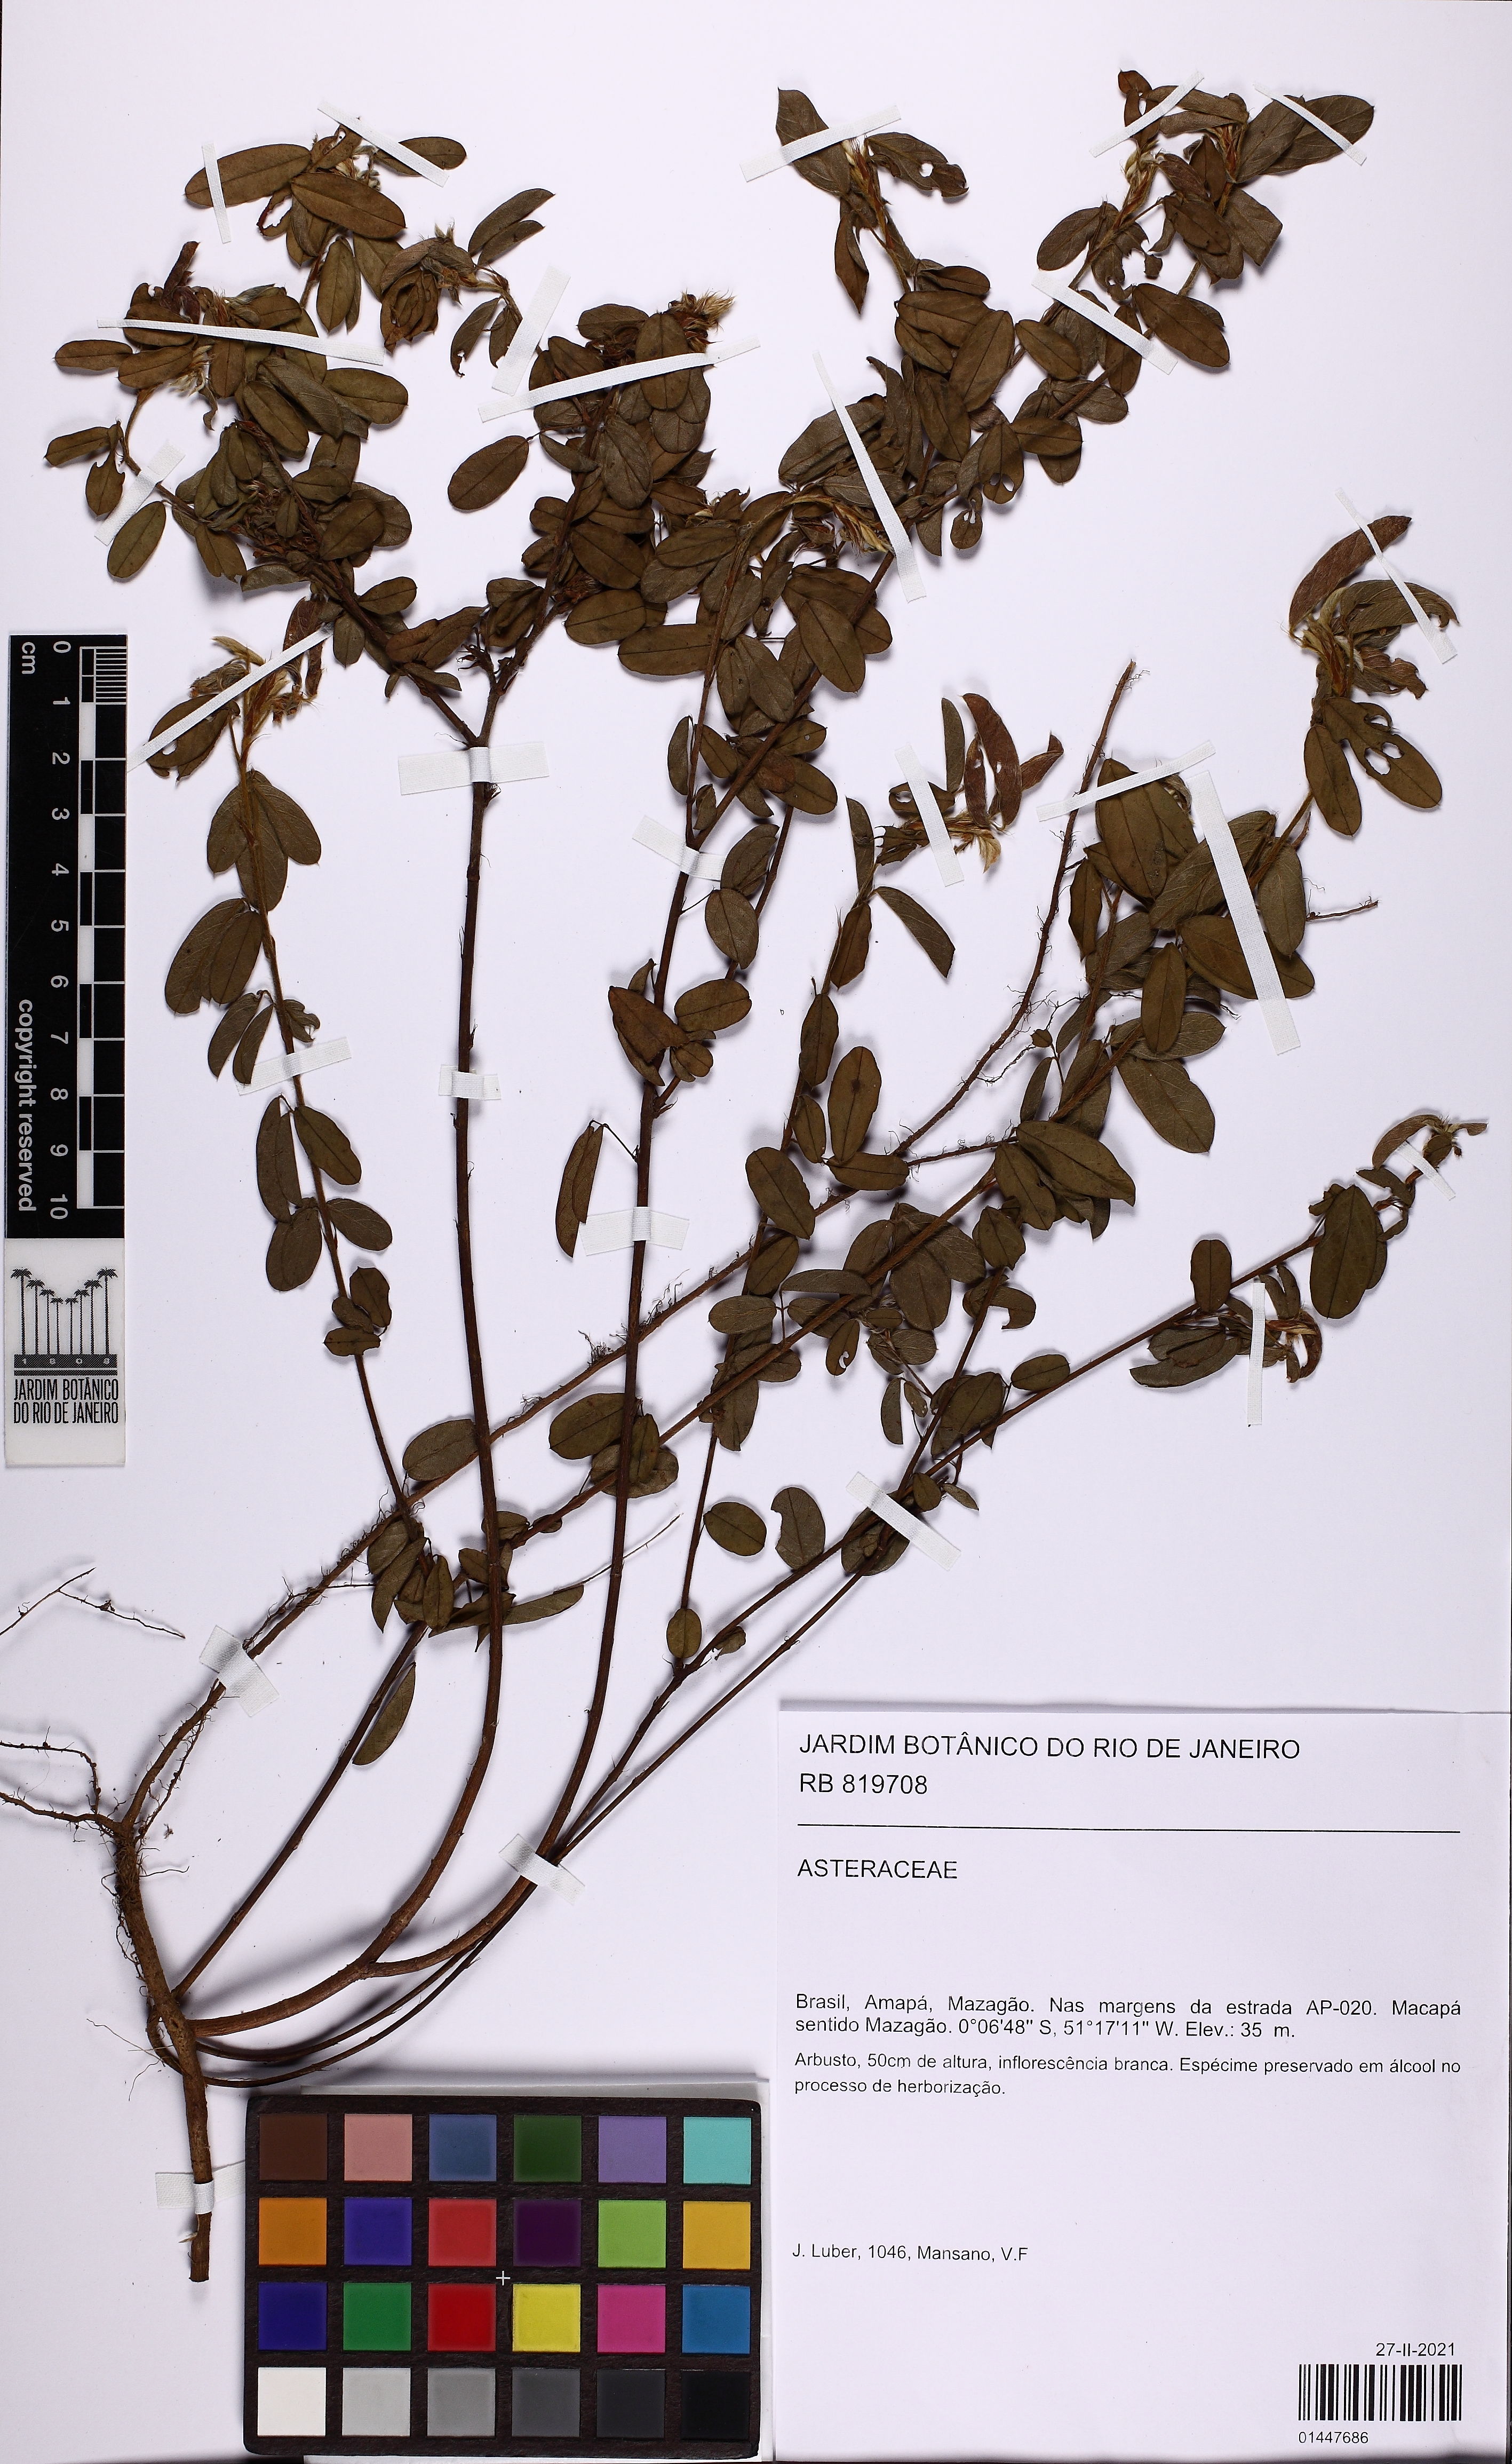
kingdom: Plantae
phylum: Tracheophyta
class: Magnoliopsida
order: Asterales
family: Asteraceae
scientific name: Asteraceae
